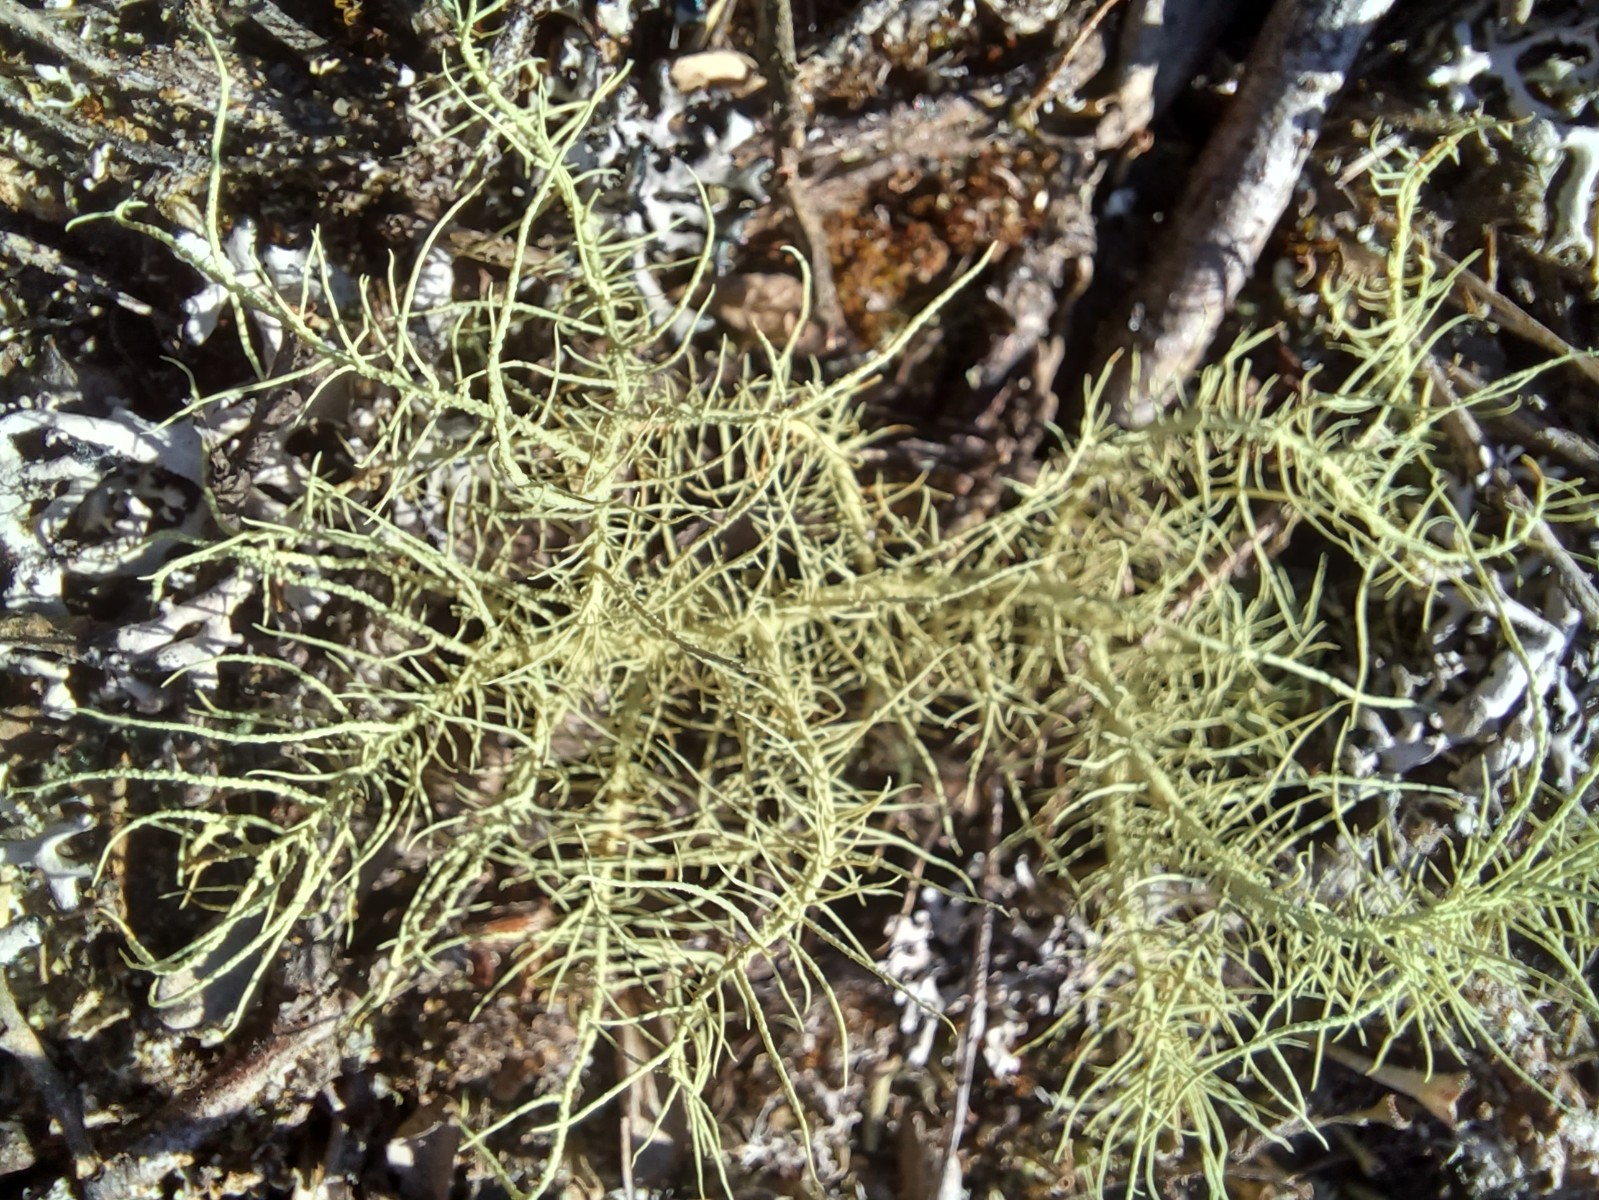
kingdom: Fungi
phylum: Ascomycota
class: Lecanoromycetes
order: Lecanorales
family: Parmeliaceae
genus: Usnea
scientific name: Usnea
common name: skæglav
